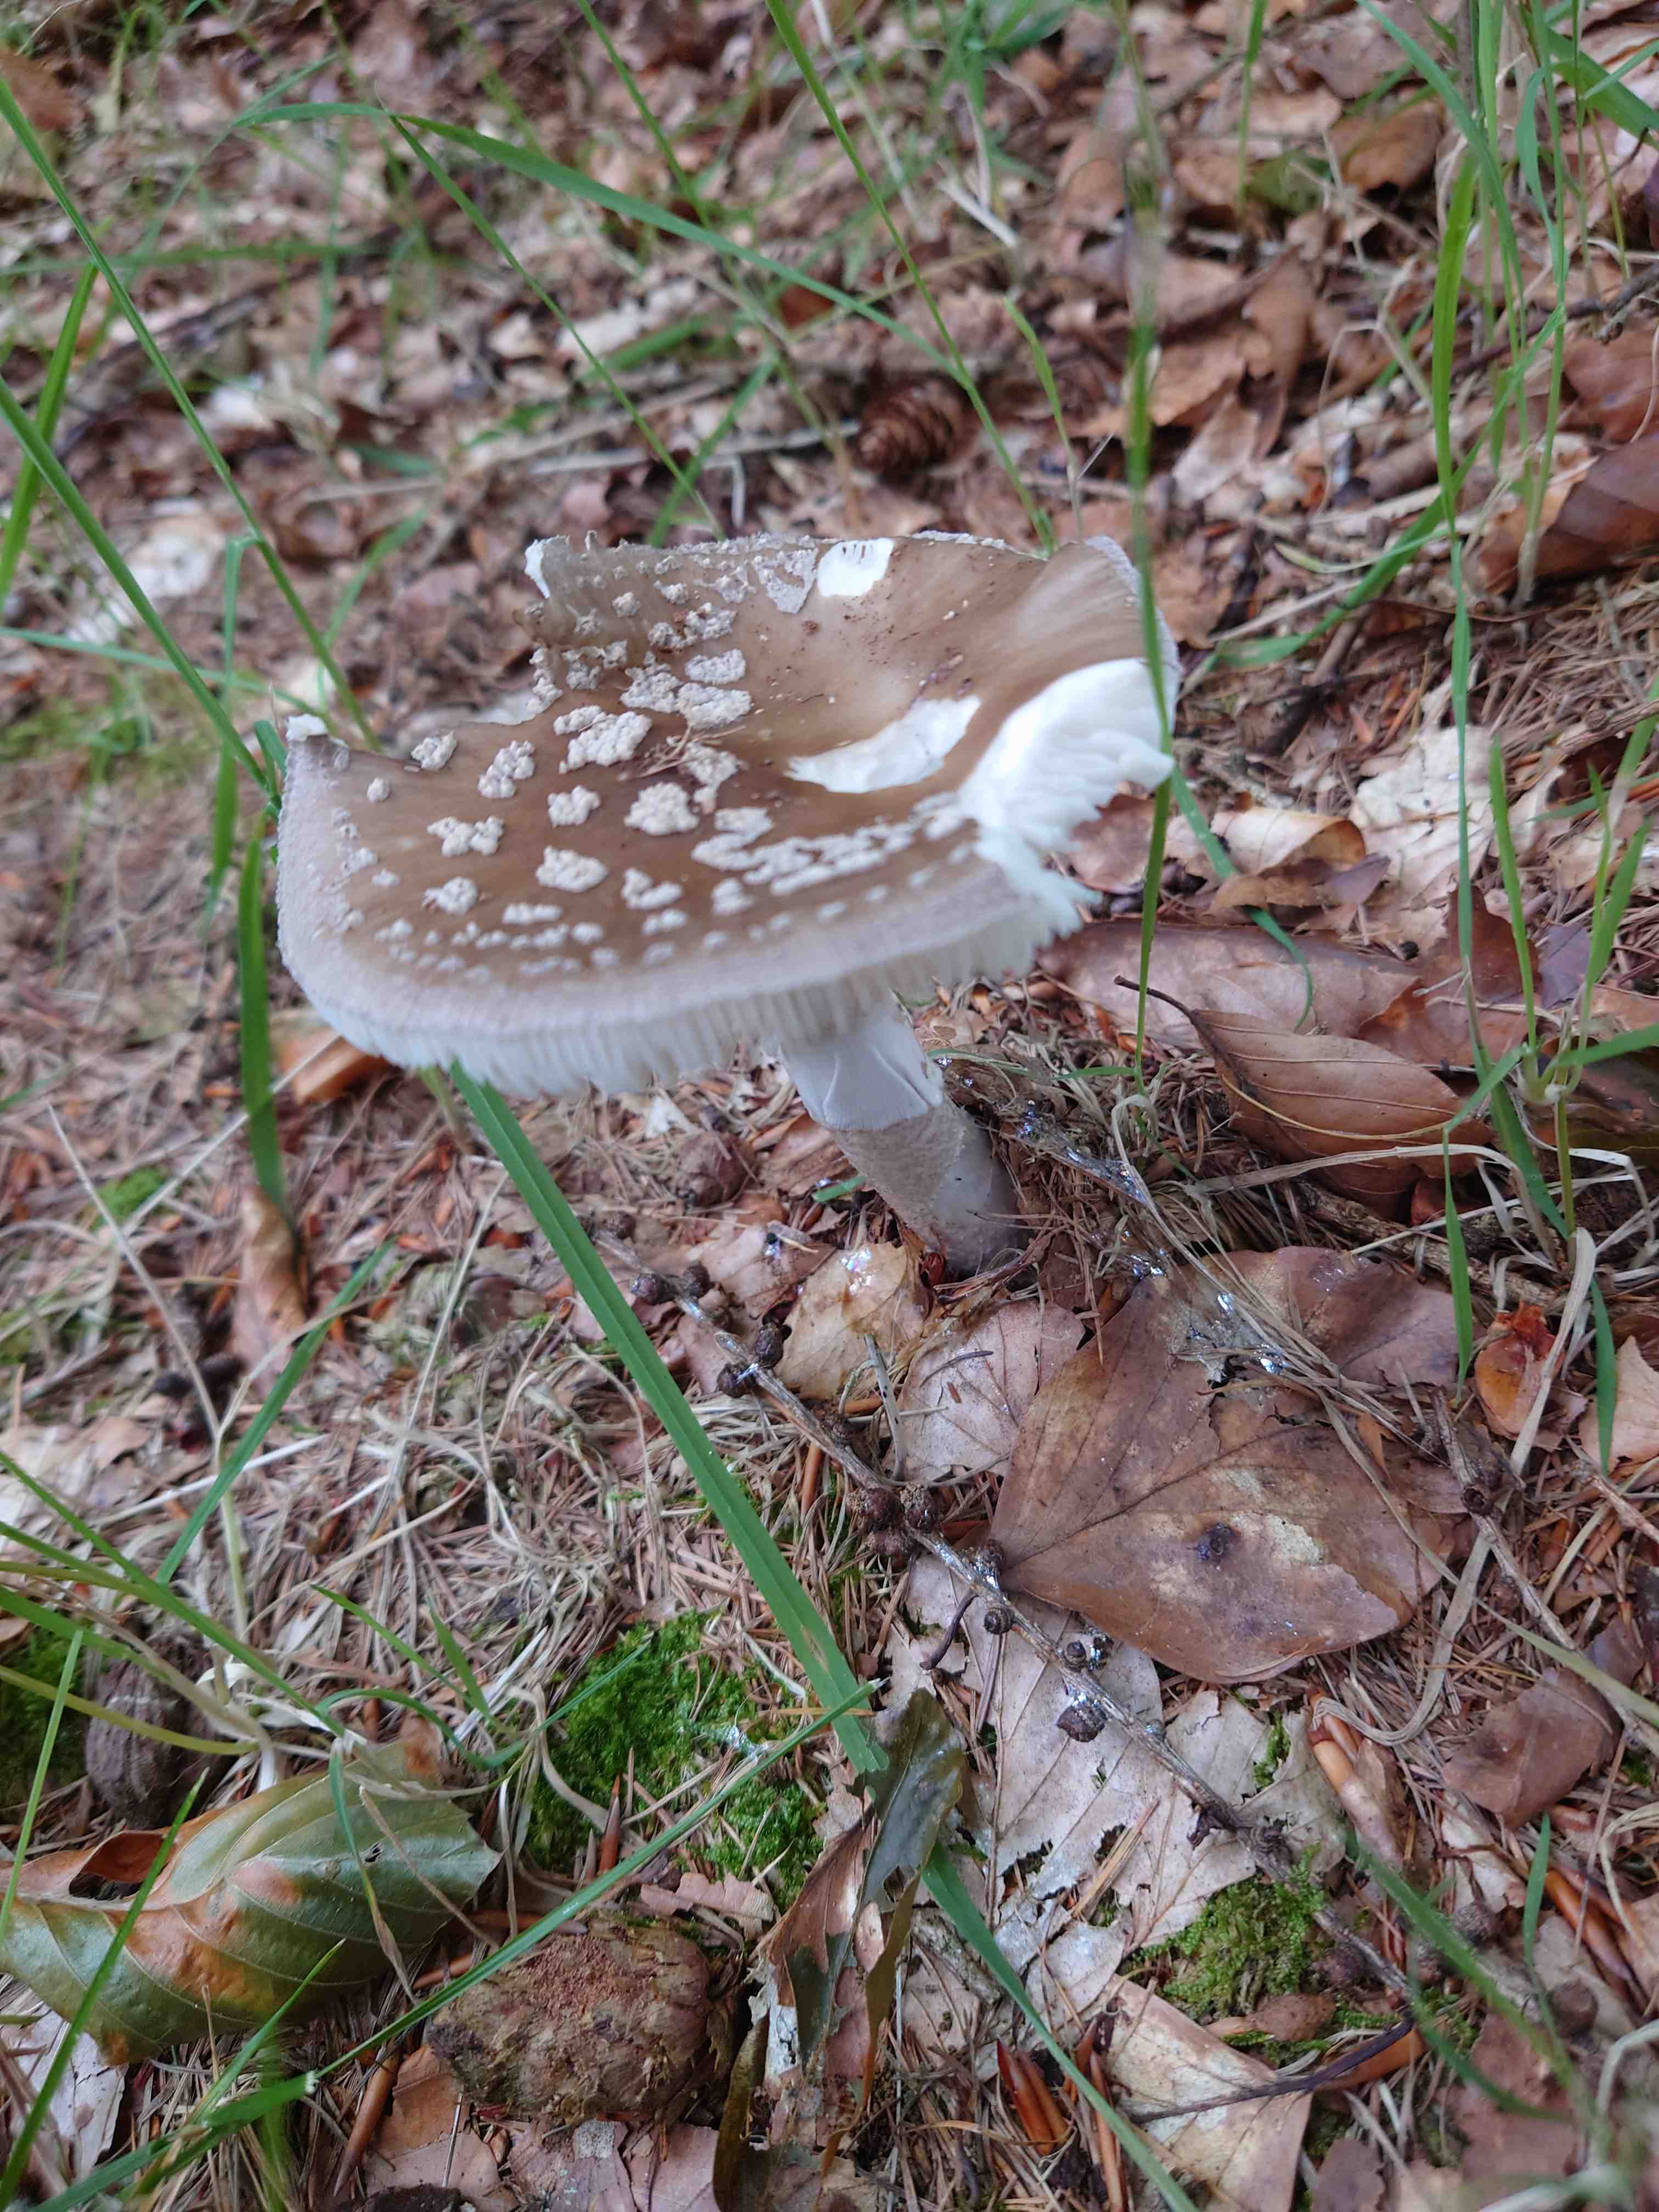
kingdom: Fungi
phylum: Basidiomycota
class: Agaricomycetes
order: Agaricales
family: Amanitaceae
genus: Amanita
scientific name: Amanita
